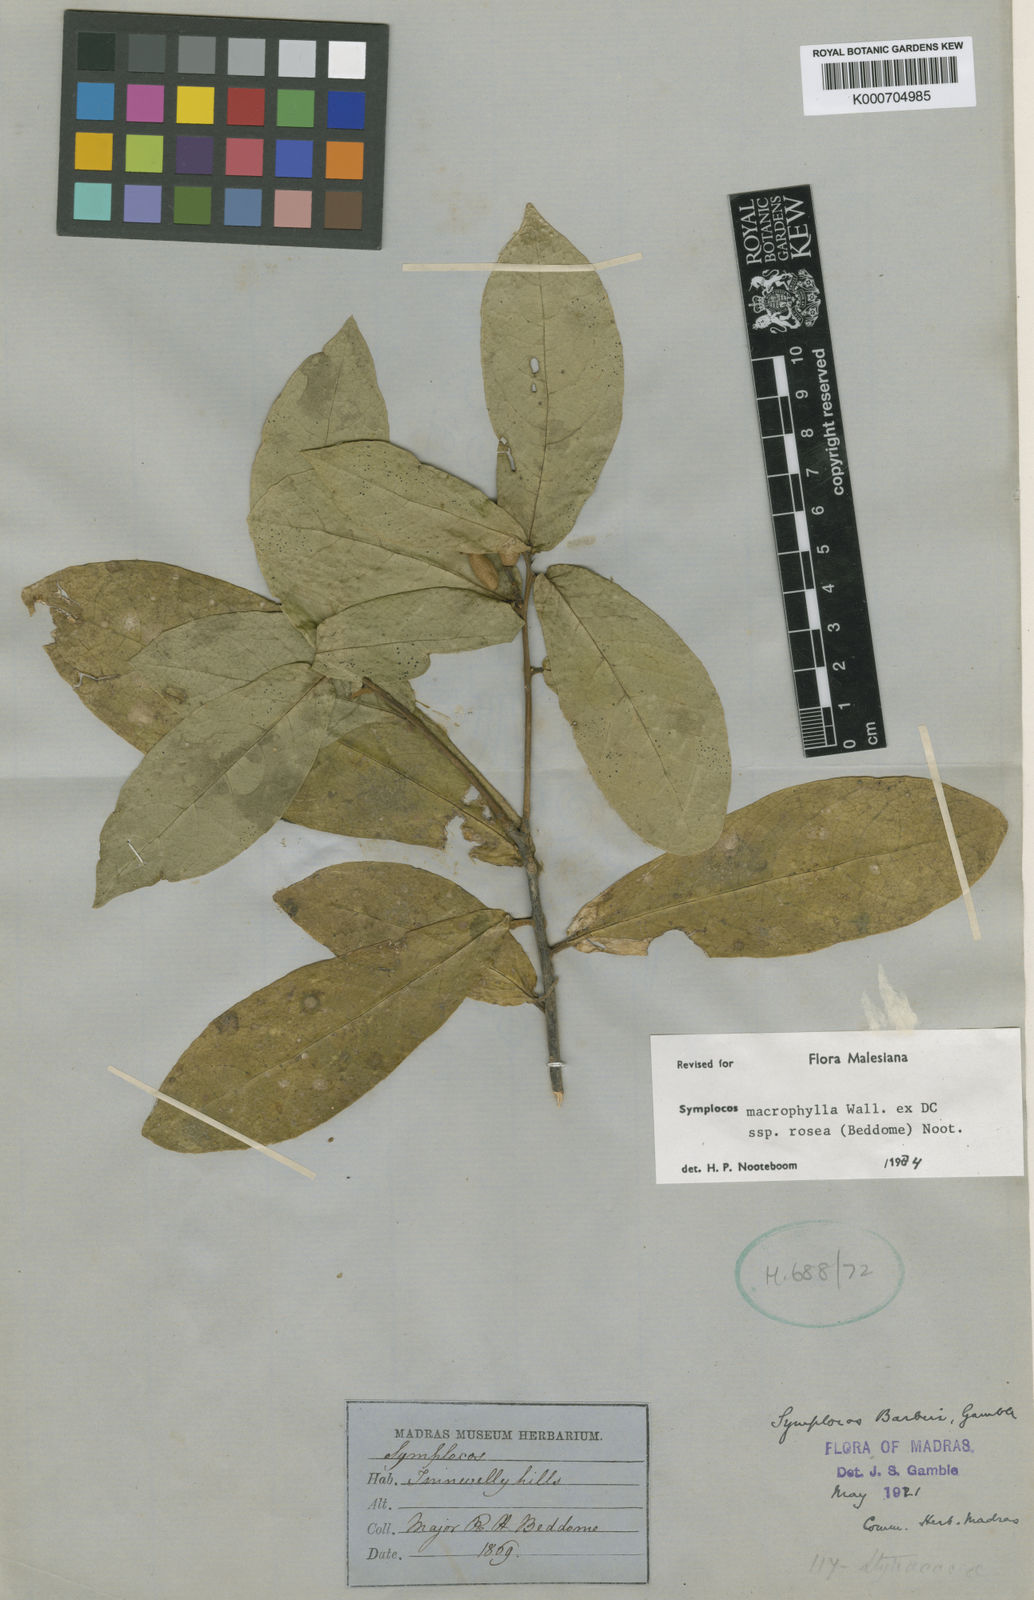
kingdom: Plantae
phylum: Tracheophyta
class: Magnoliopsida
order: Ericales
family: Symplocaceae
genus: Symplocos
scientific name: Symplocos macrophylla
